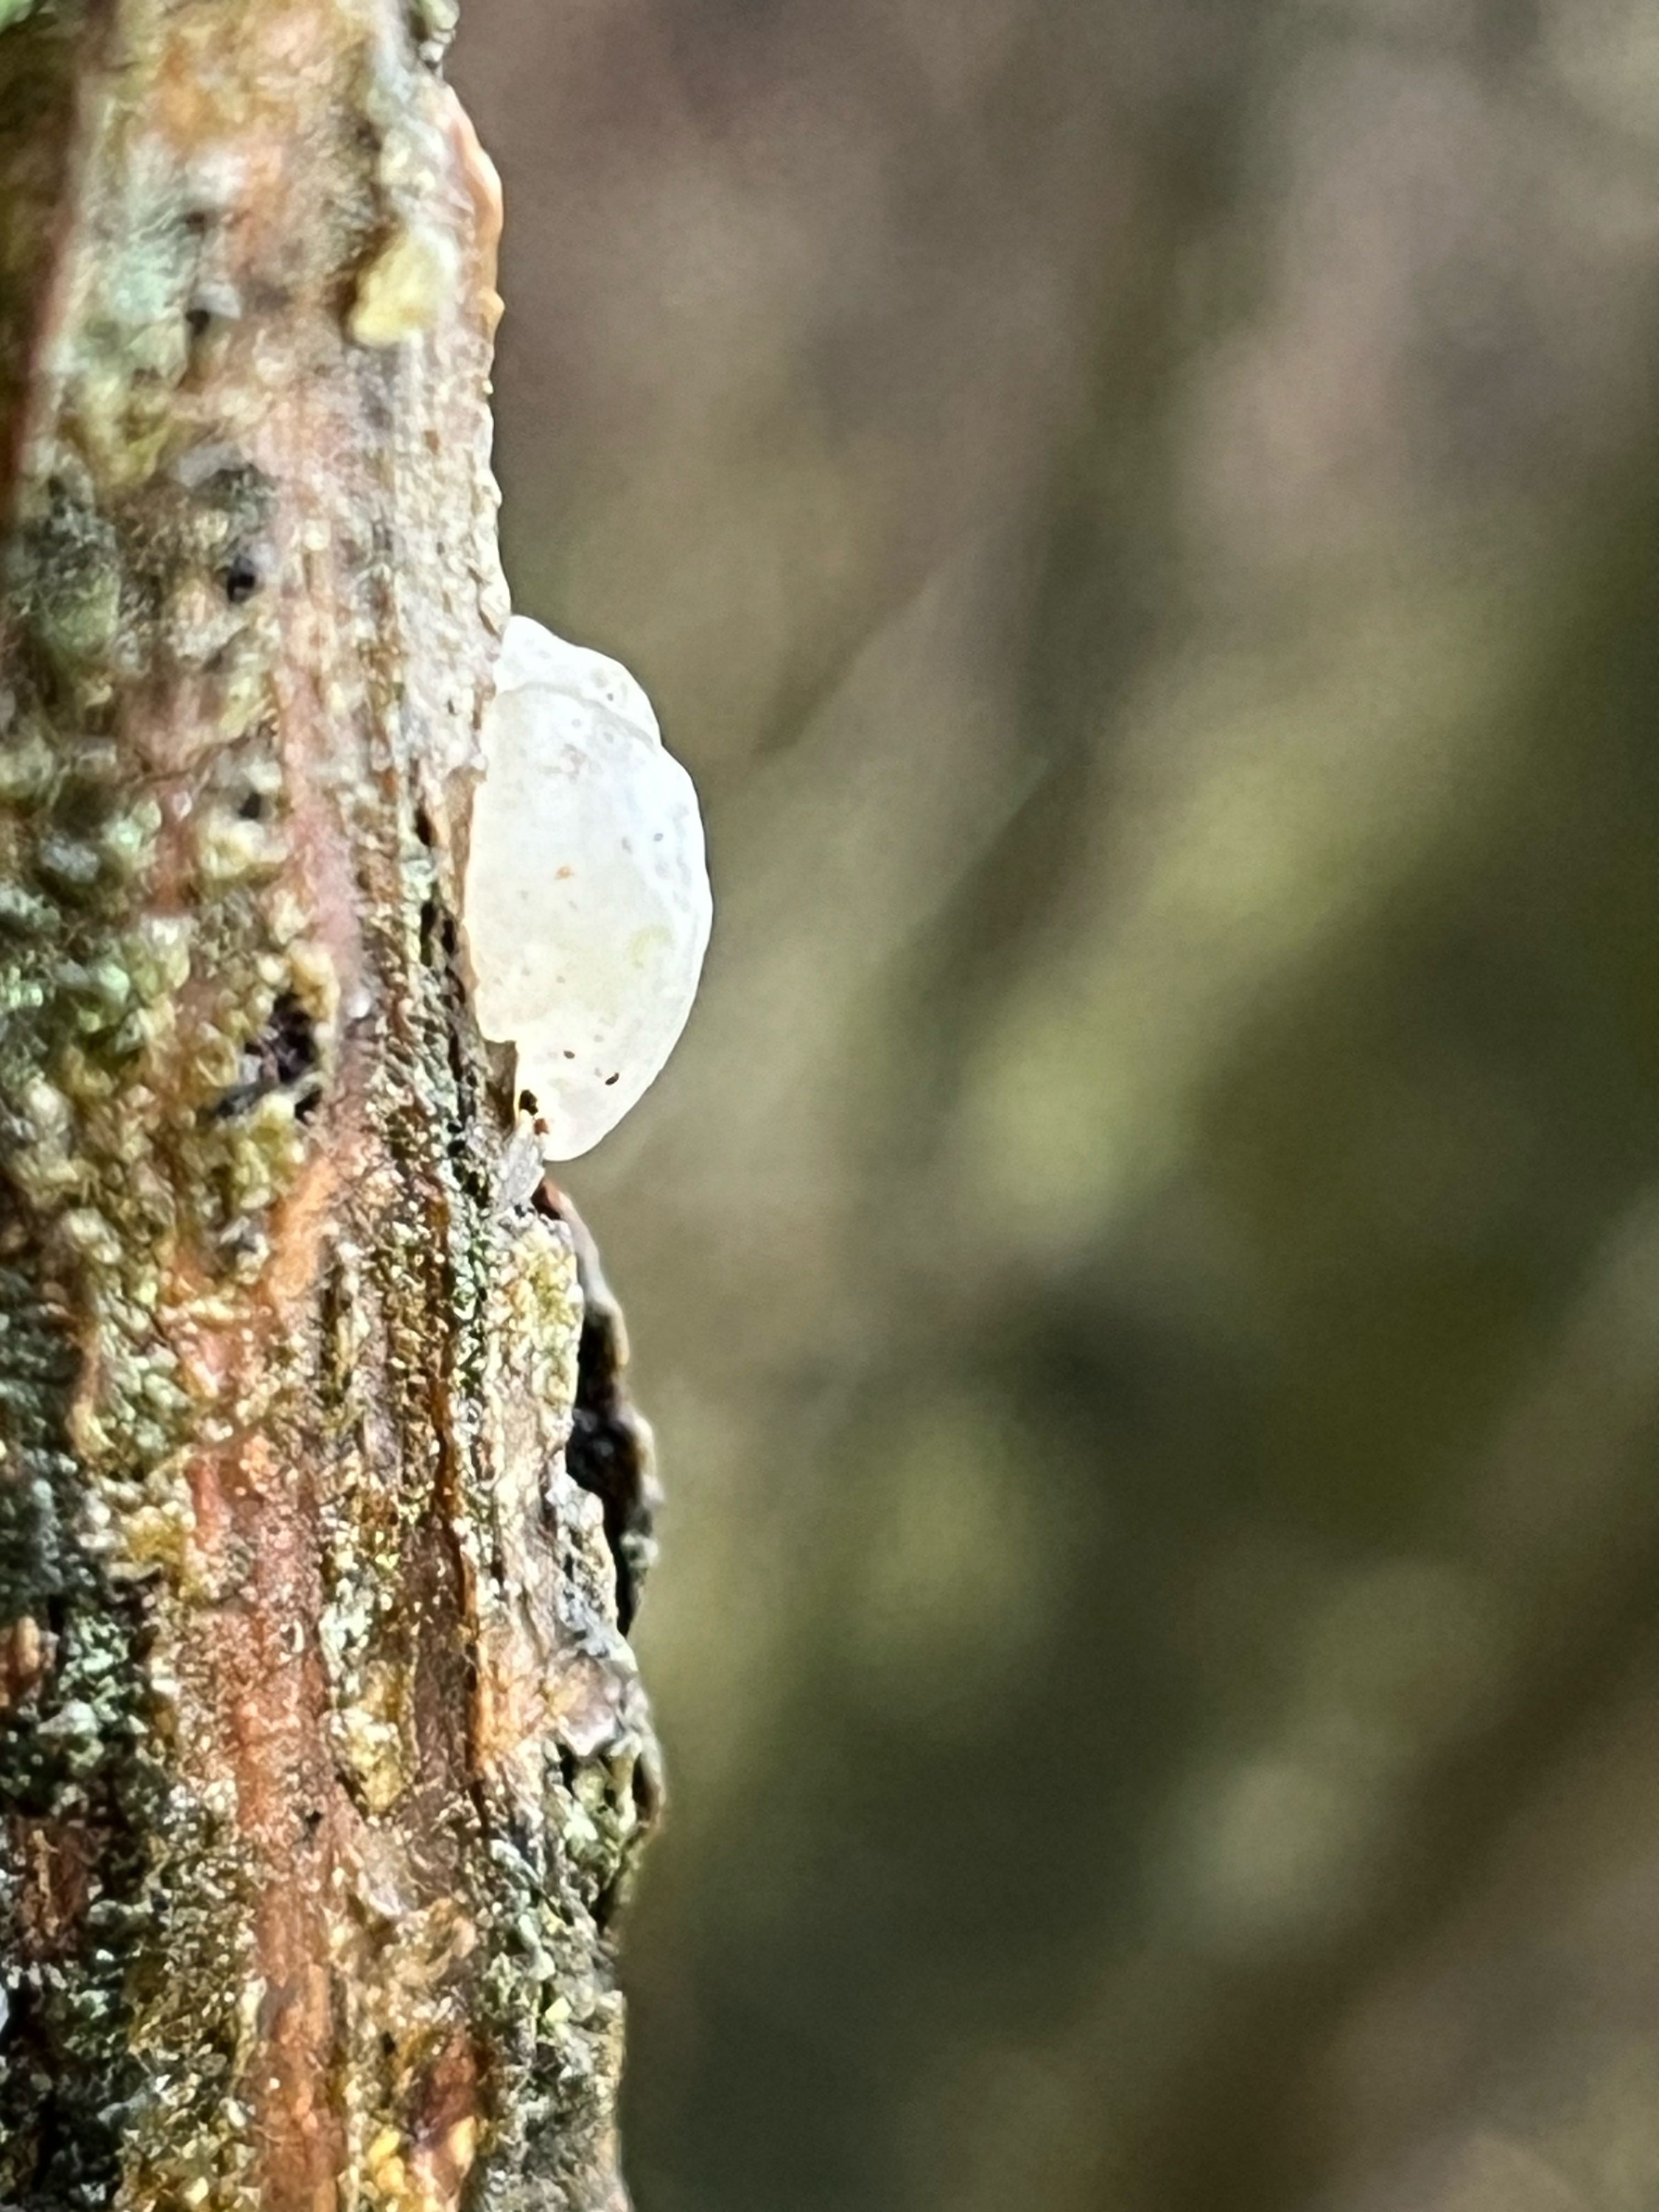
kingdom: Fungi
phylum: Basidiomycota
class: Agaricomycetes
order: Auriculariales
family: Hyaloriaceae
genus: Myxarium
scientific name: Myxarium nucleatum
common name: klar bævretop
